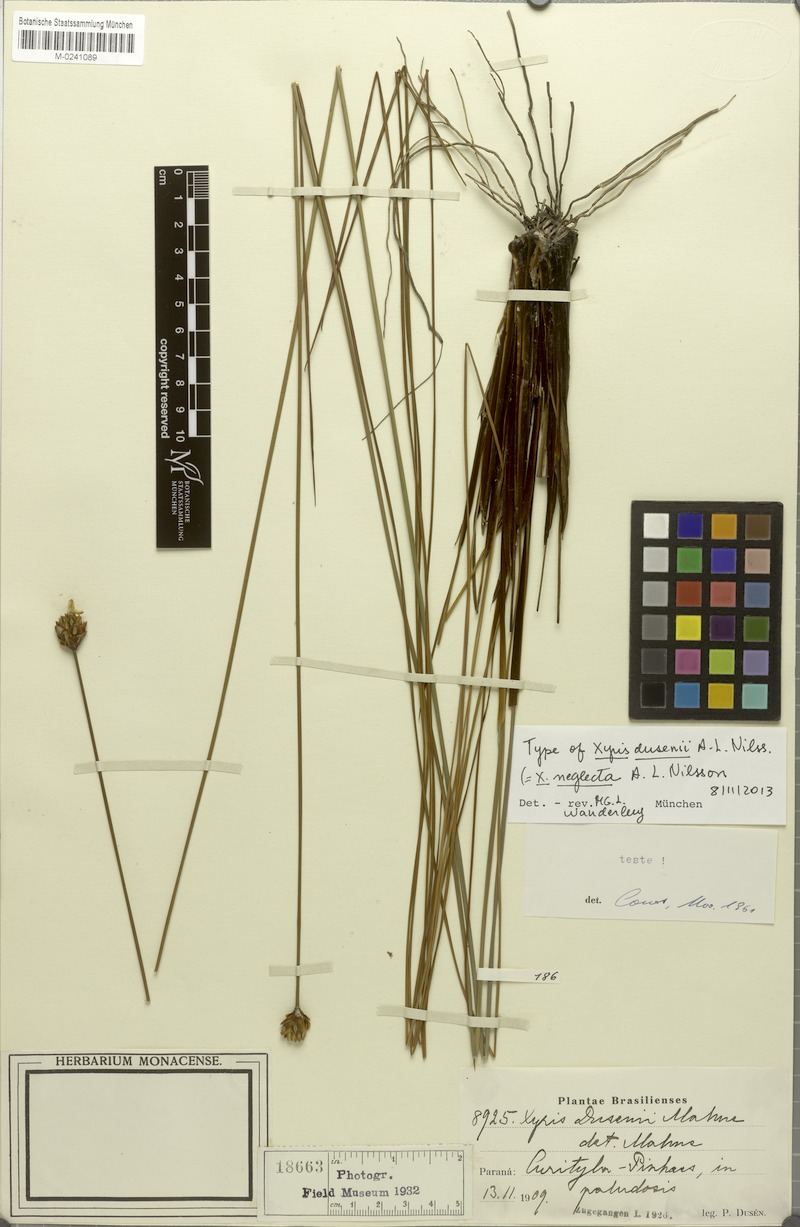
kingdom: Plantae
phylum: Tracheophyta
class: Liliopsida
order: Poales
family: Xyridaceae
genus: Xyris
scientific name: Xyris neglecta
